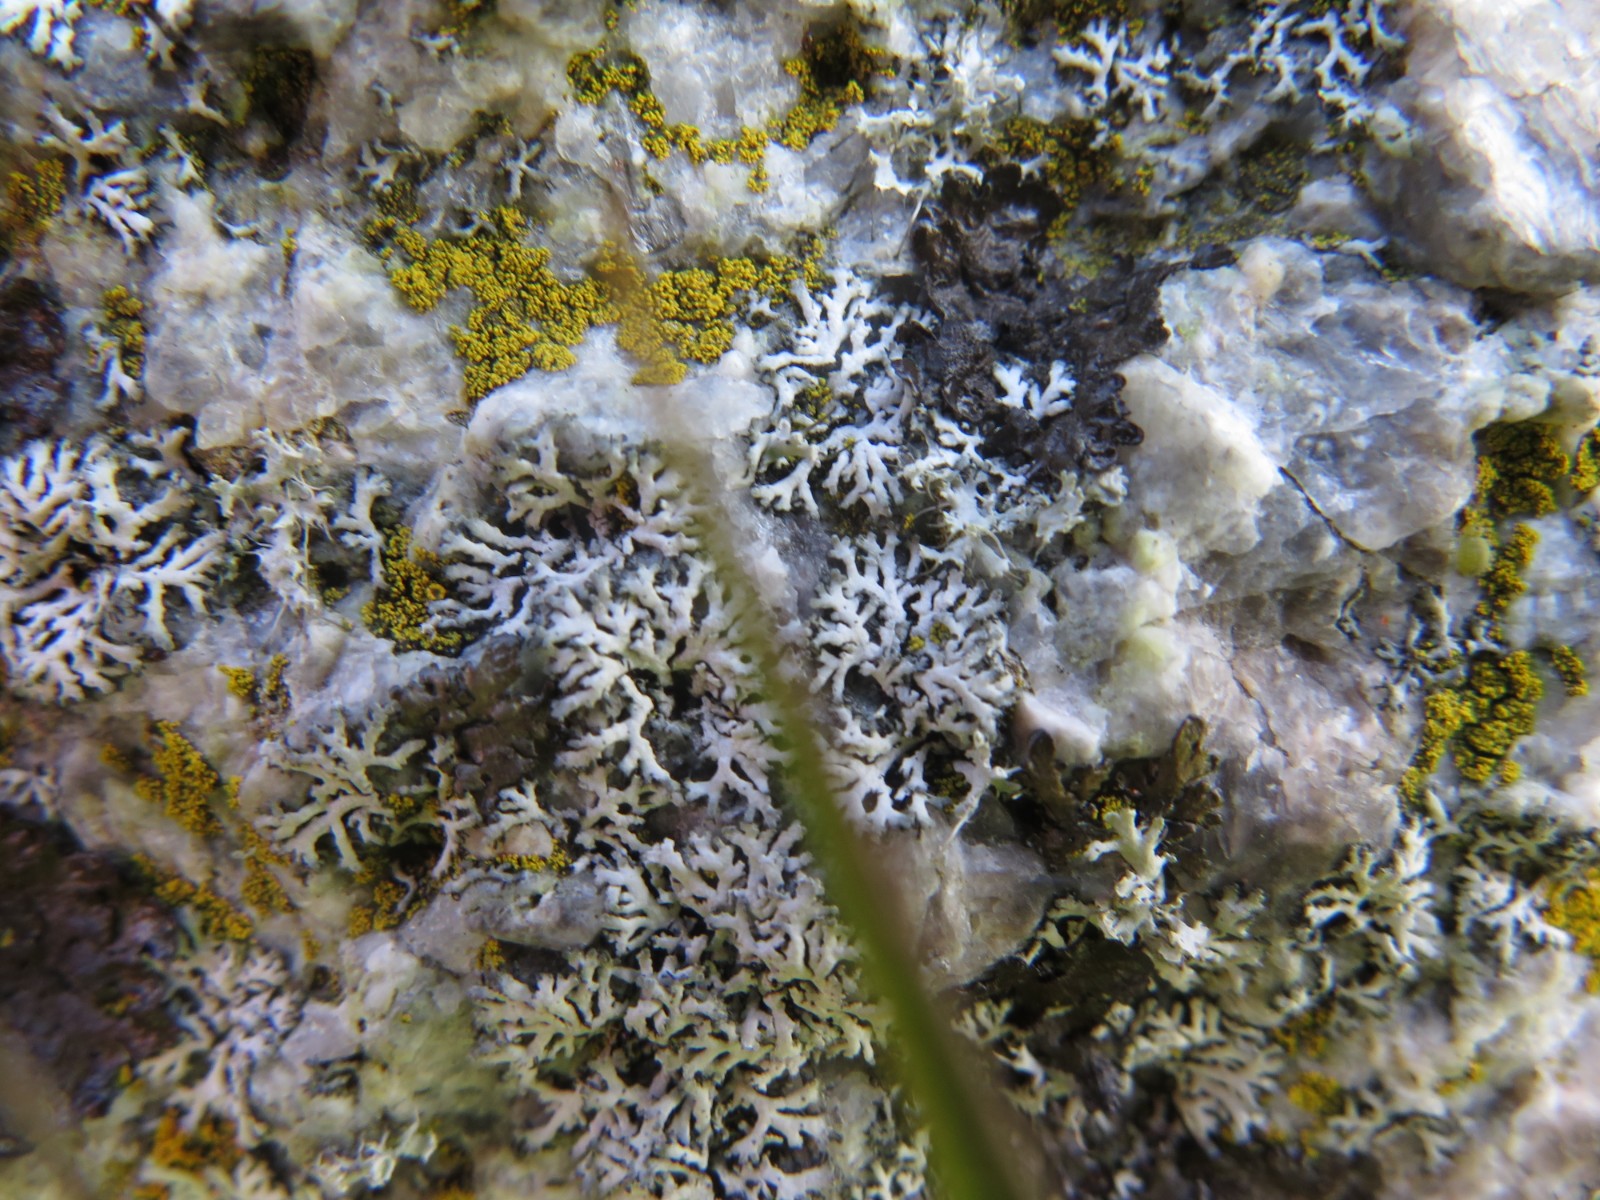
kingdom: Fungi
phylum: Ascomycota
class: Lecanoromycetes
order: Caliciales
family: Physciaceae
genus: Physcia
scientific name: Physcia tenella
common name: spæd rosetlav
